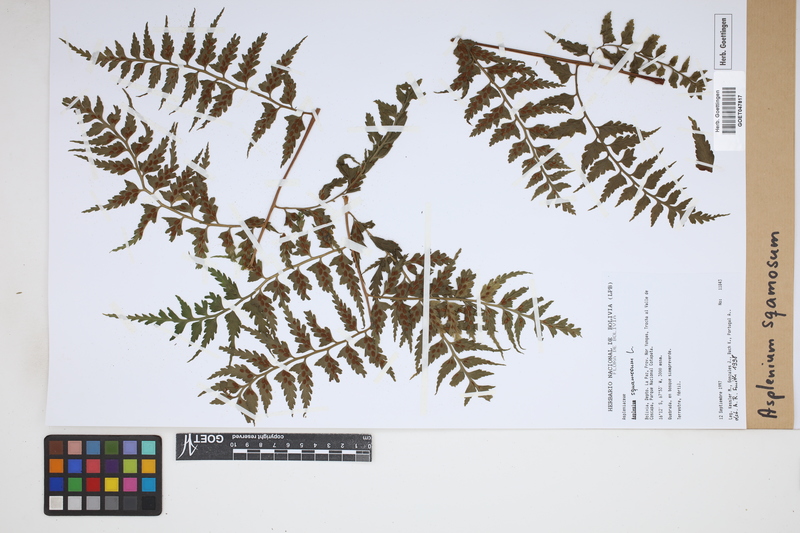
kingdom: Plantae
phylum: Tracheophyta
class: Polypodiopsida
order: Polypodiales
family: Aspleniaceae
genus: Asplenium
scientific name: Asplenium squamosum
